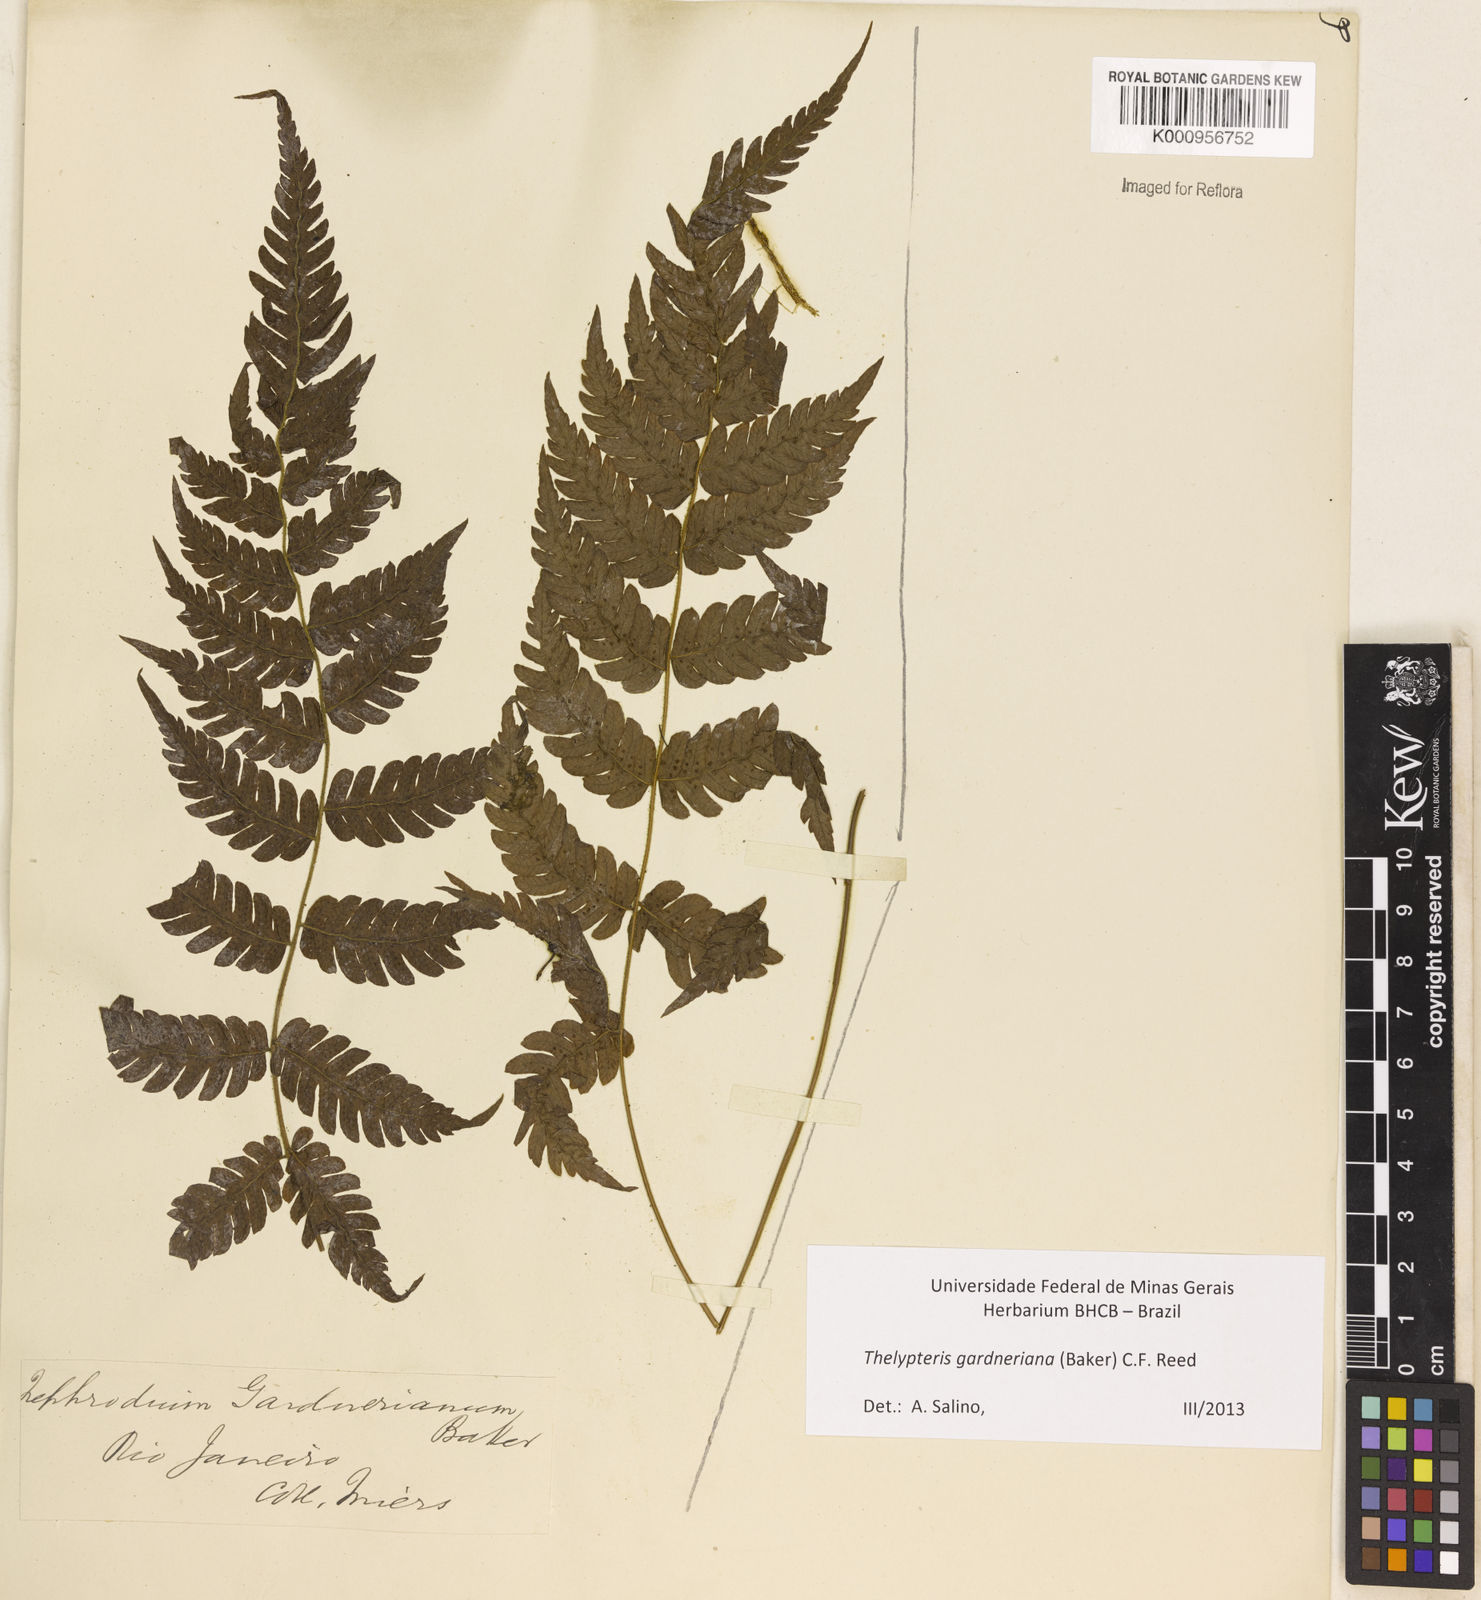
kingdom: Plantae
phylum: Tracheophyta
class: Polypodiopsida
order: Polypodiales
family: Thelypteridaceae
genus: Steiropteris
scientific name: Steiropteris gardneriana
